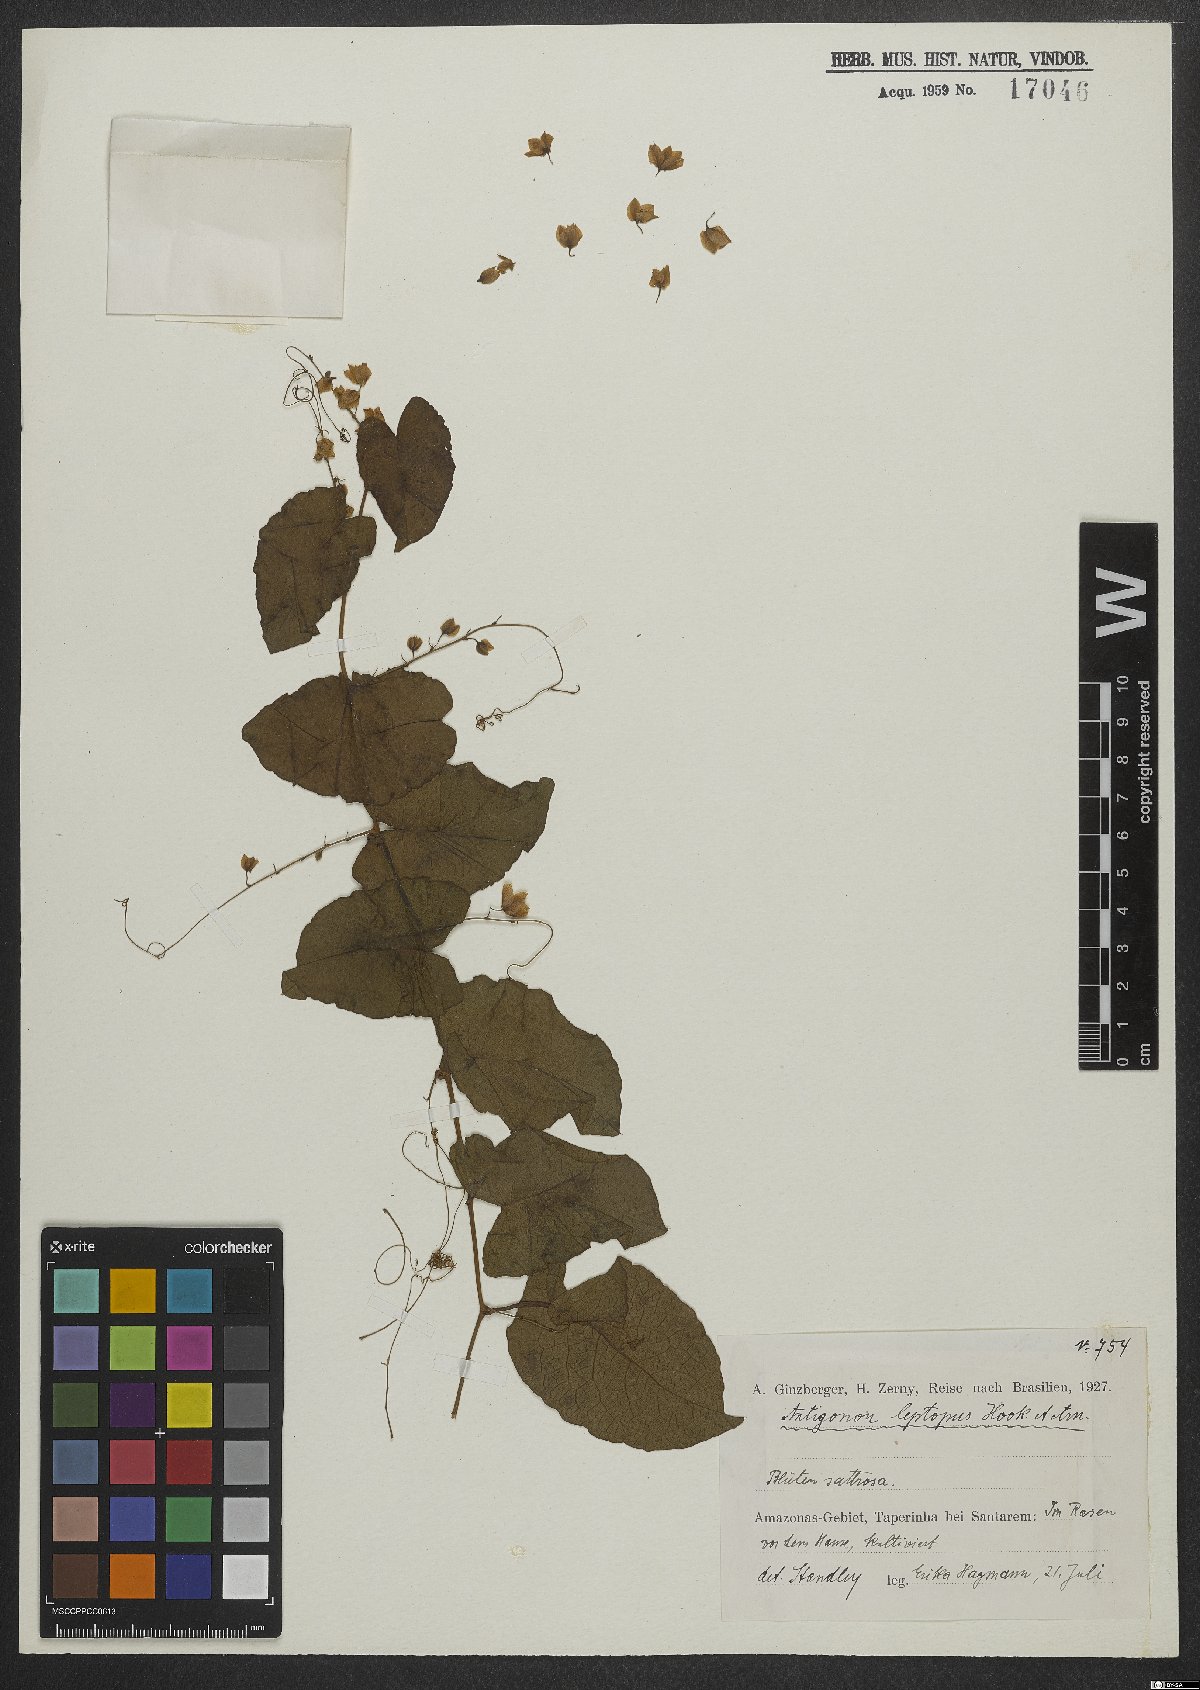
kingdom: Plantae
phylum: Tracheophyta
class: Magnoliopsida
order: Caryophyllales
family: Polygonaceae
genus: Antigonon
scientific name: Antigonon leptopus
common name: Coral vine
